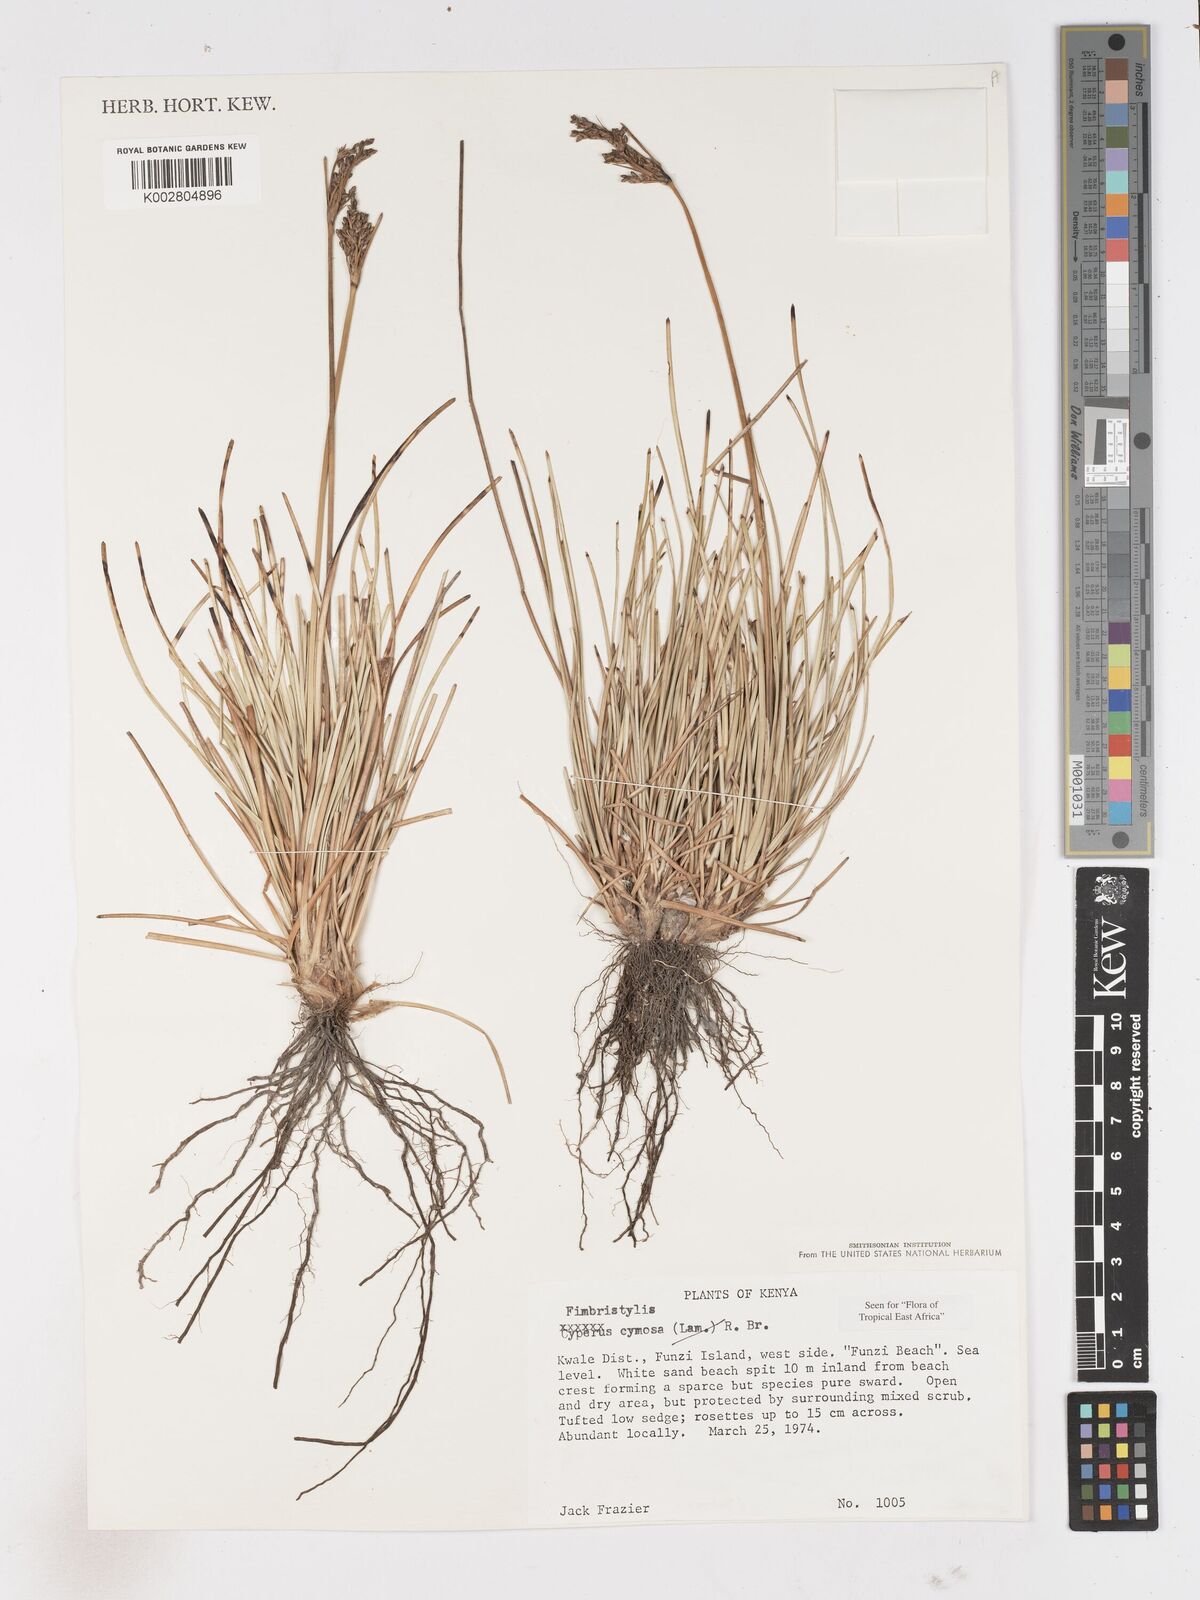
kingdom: Plantae
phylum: Tracheophyta
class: Liliopsida
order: Poales
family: Cyperaceae
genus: Fimbristylis
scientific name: Fimbristylis cymosa
